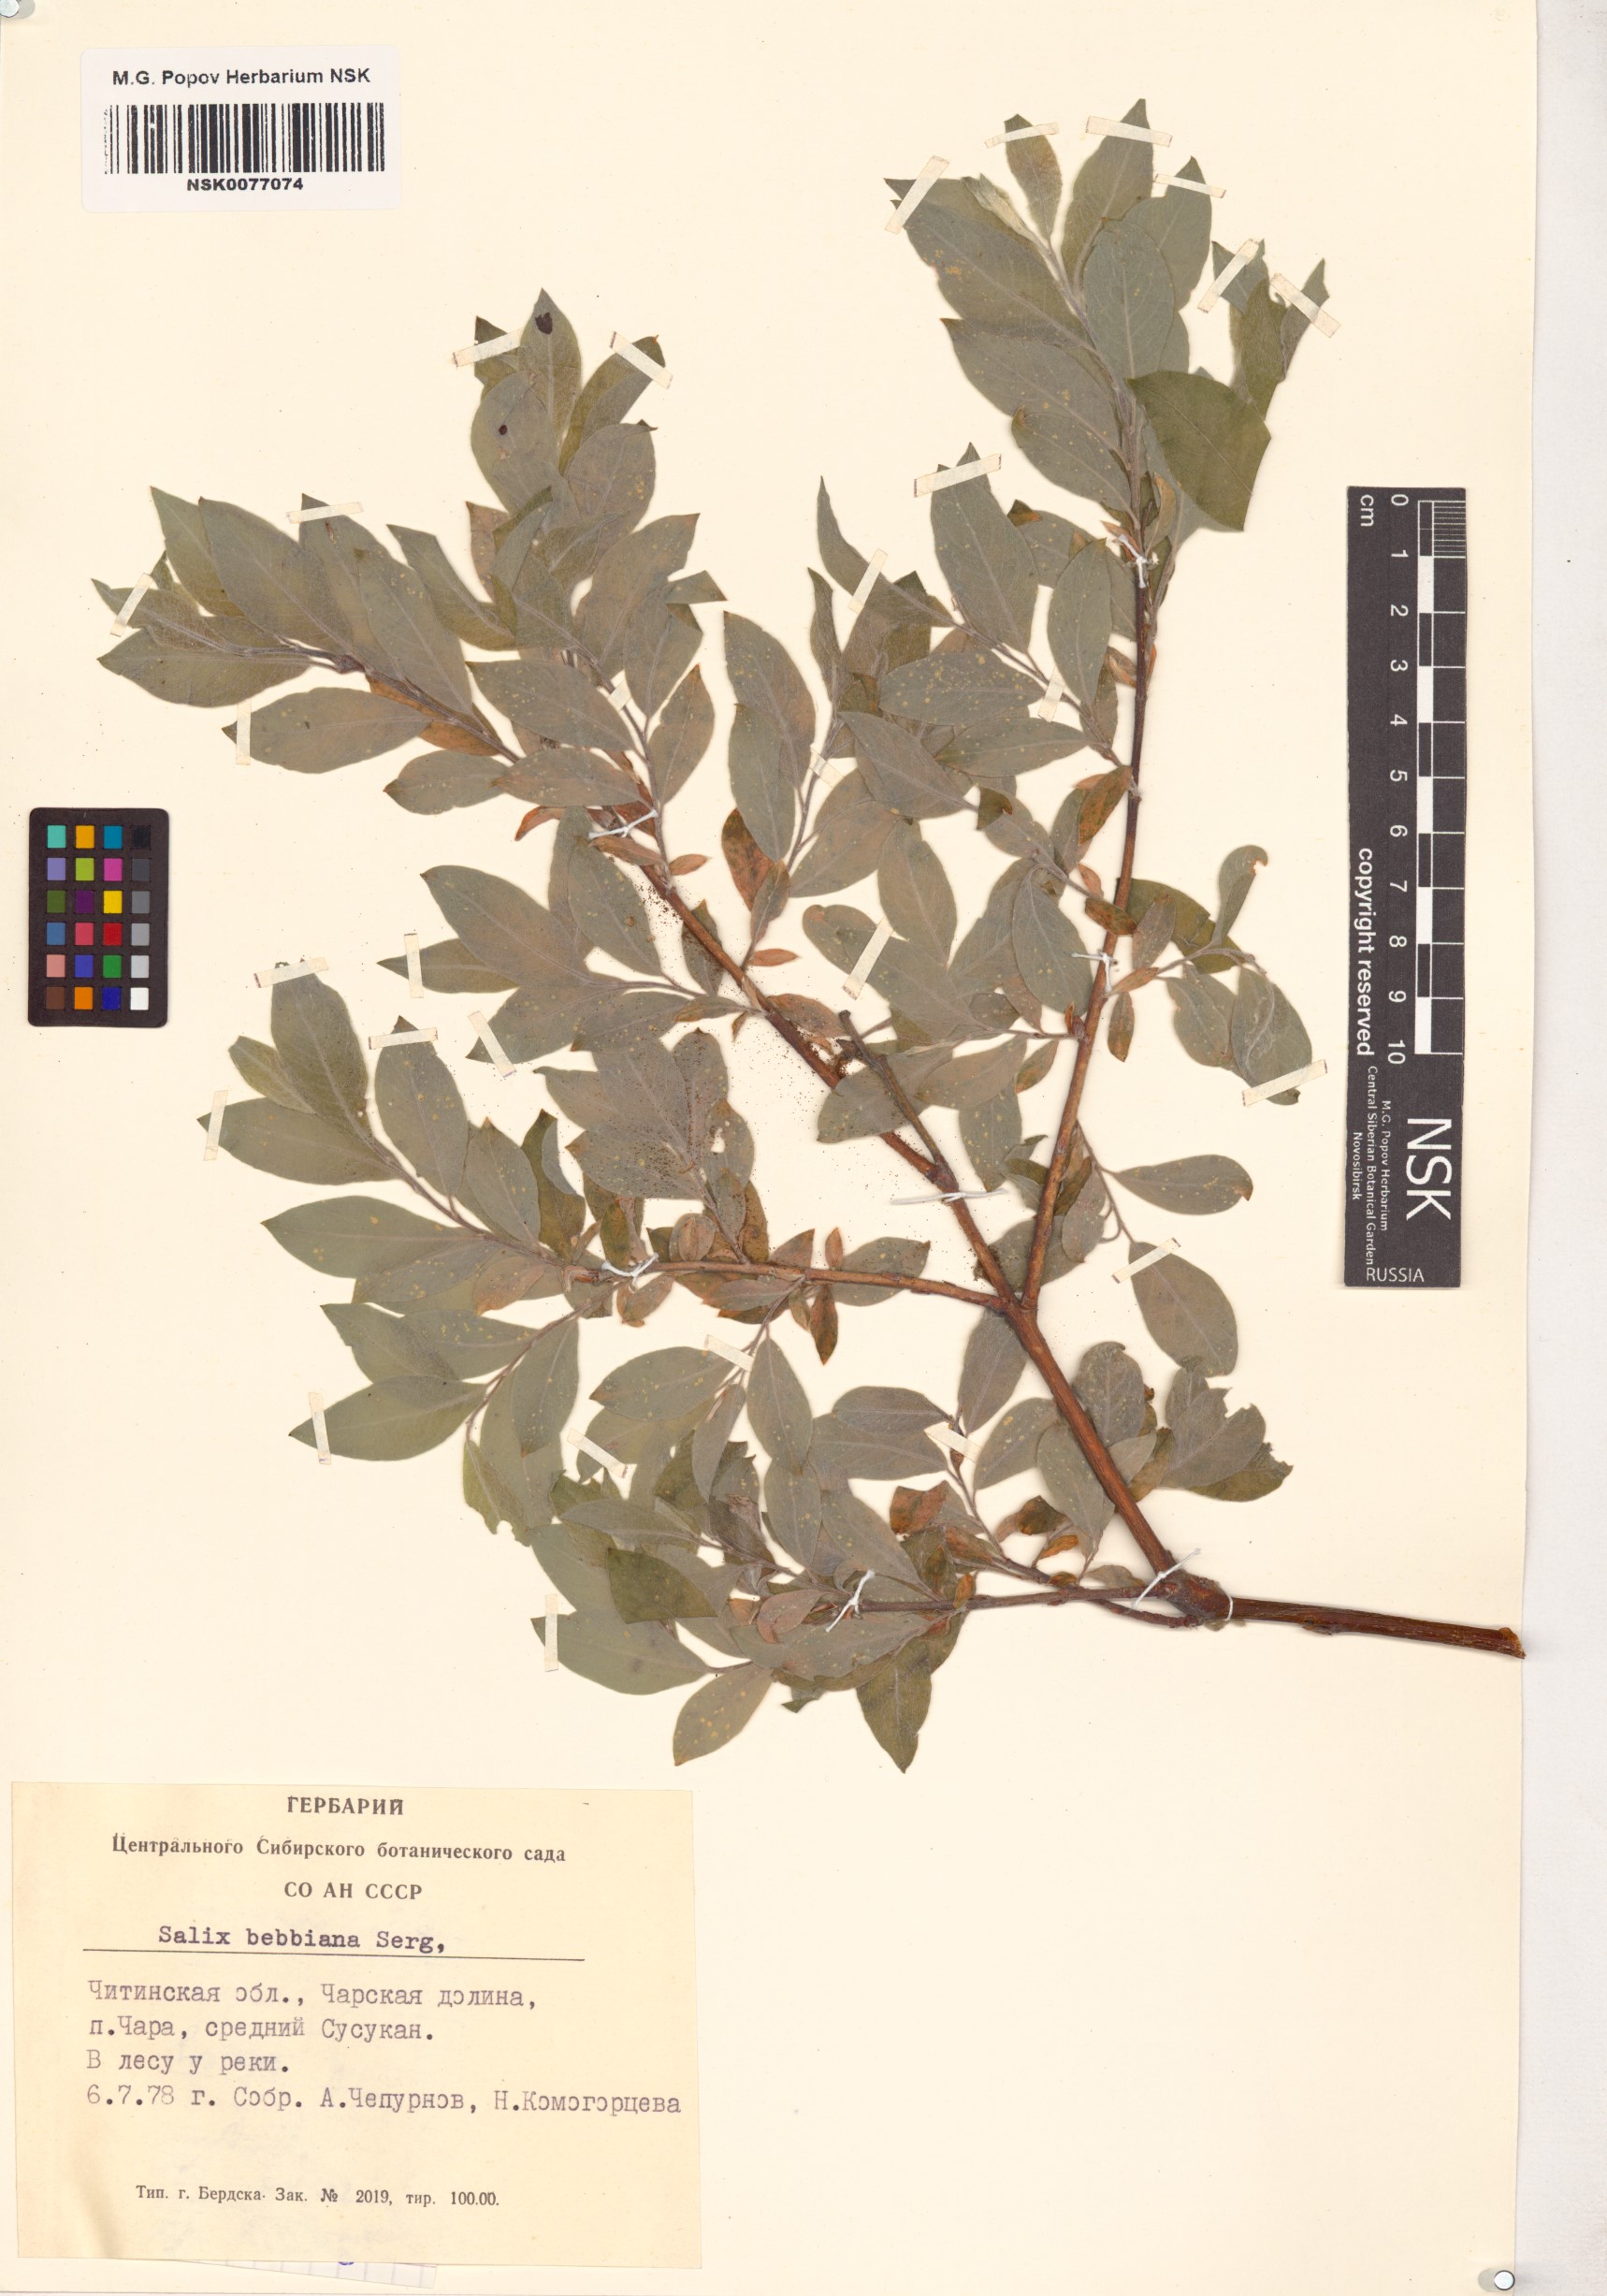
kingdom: Plantae
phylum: Tracheophyta
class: Magnoliopsida
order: Malpighiales
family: Salicaceae
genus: Salix
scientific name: Salix bebbiana
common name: Bebb's willow
